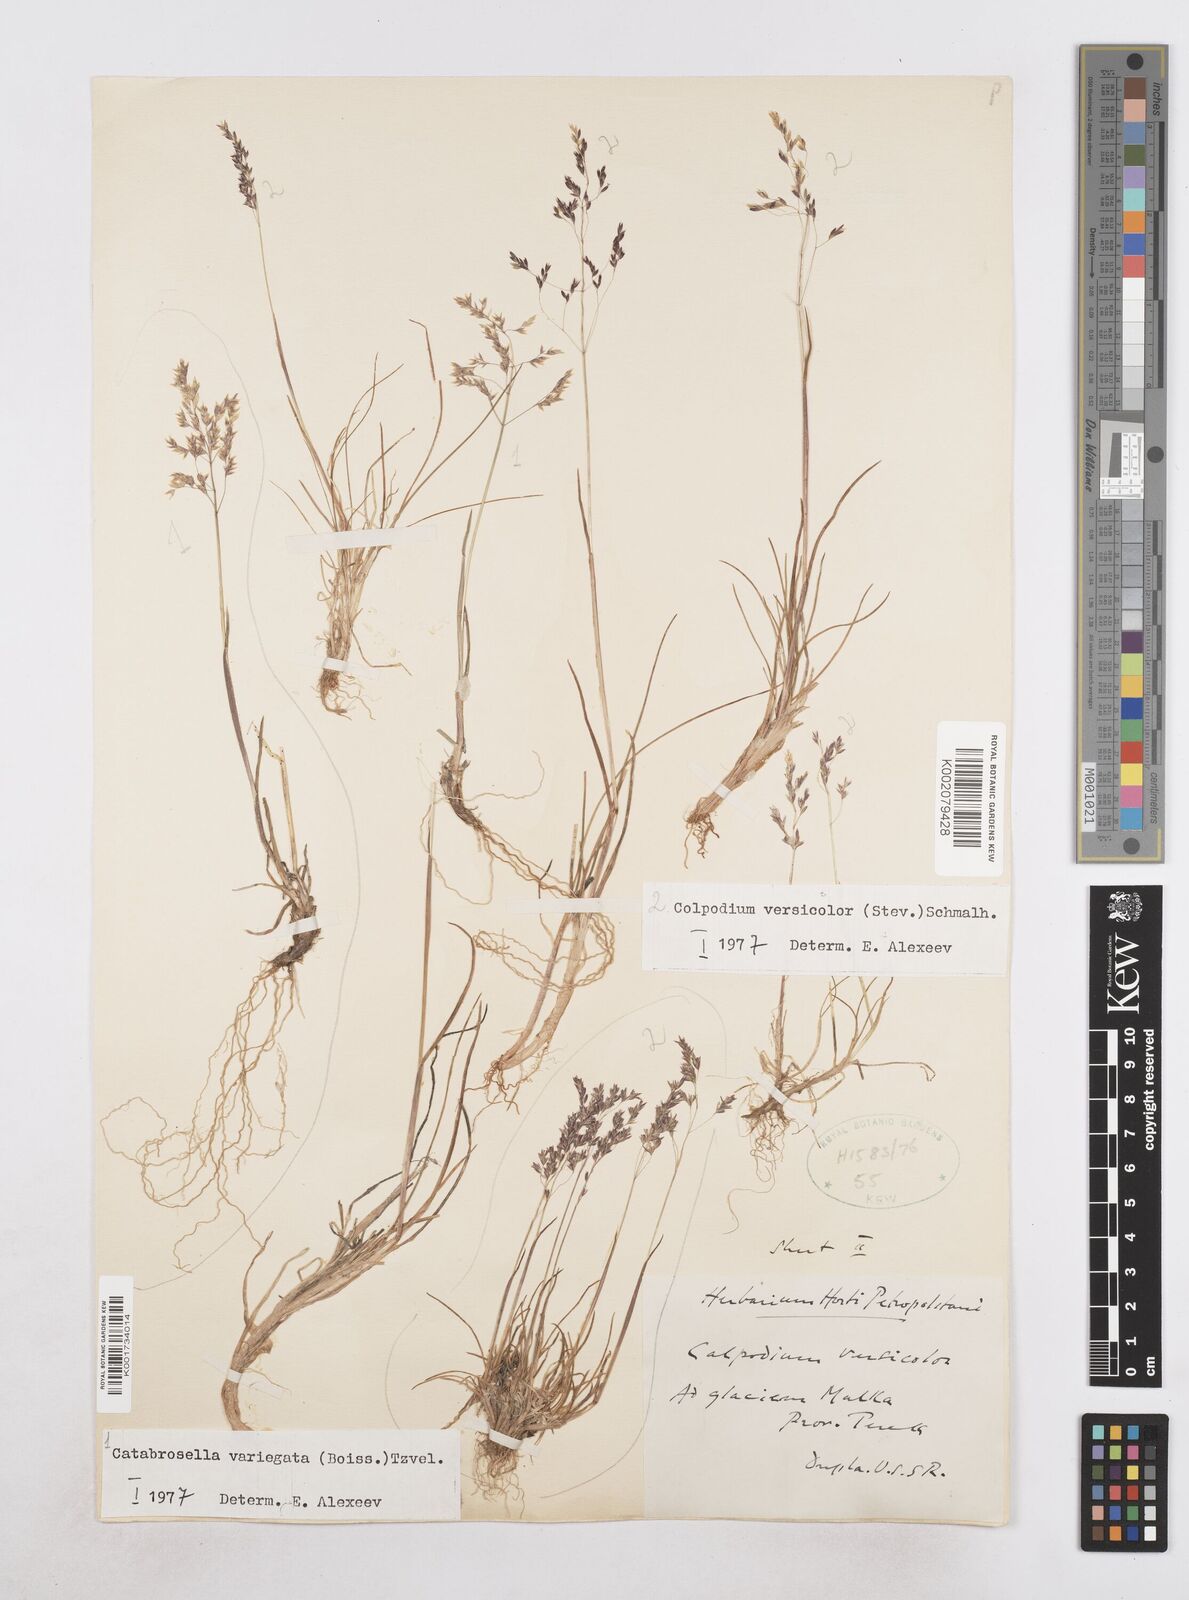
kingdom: Plantae
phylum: Tracheophyta
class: Liliopsida
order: Poales
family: Poaceae
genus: Catabrosella
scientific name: Catabrosella variegata
